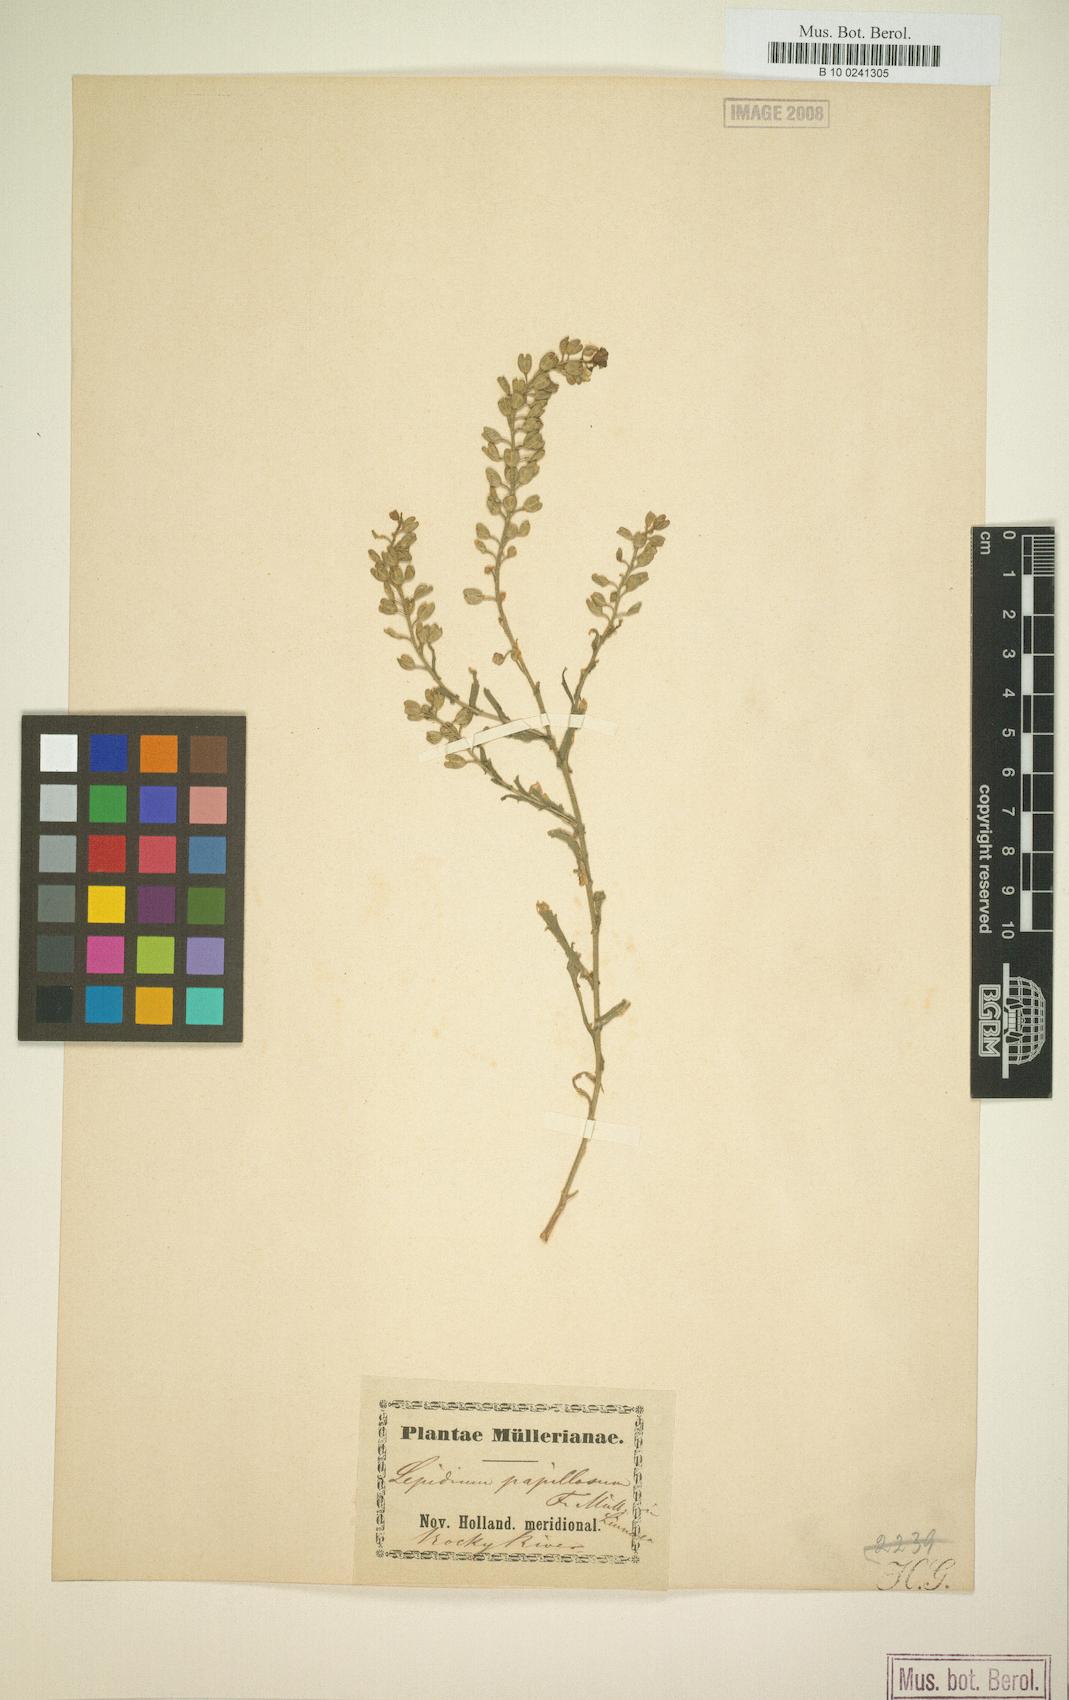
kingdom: Plantae
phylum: Tracheophyta
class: Magnoliopsida
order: Brassicales
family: Brassicaceae
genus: Lepidium
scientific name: Lepidium papillosum
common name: Warty pepperwort
